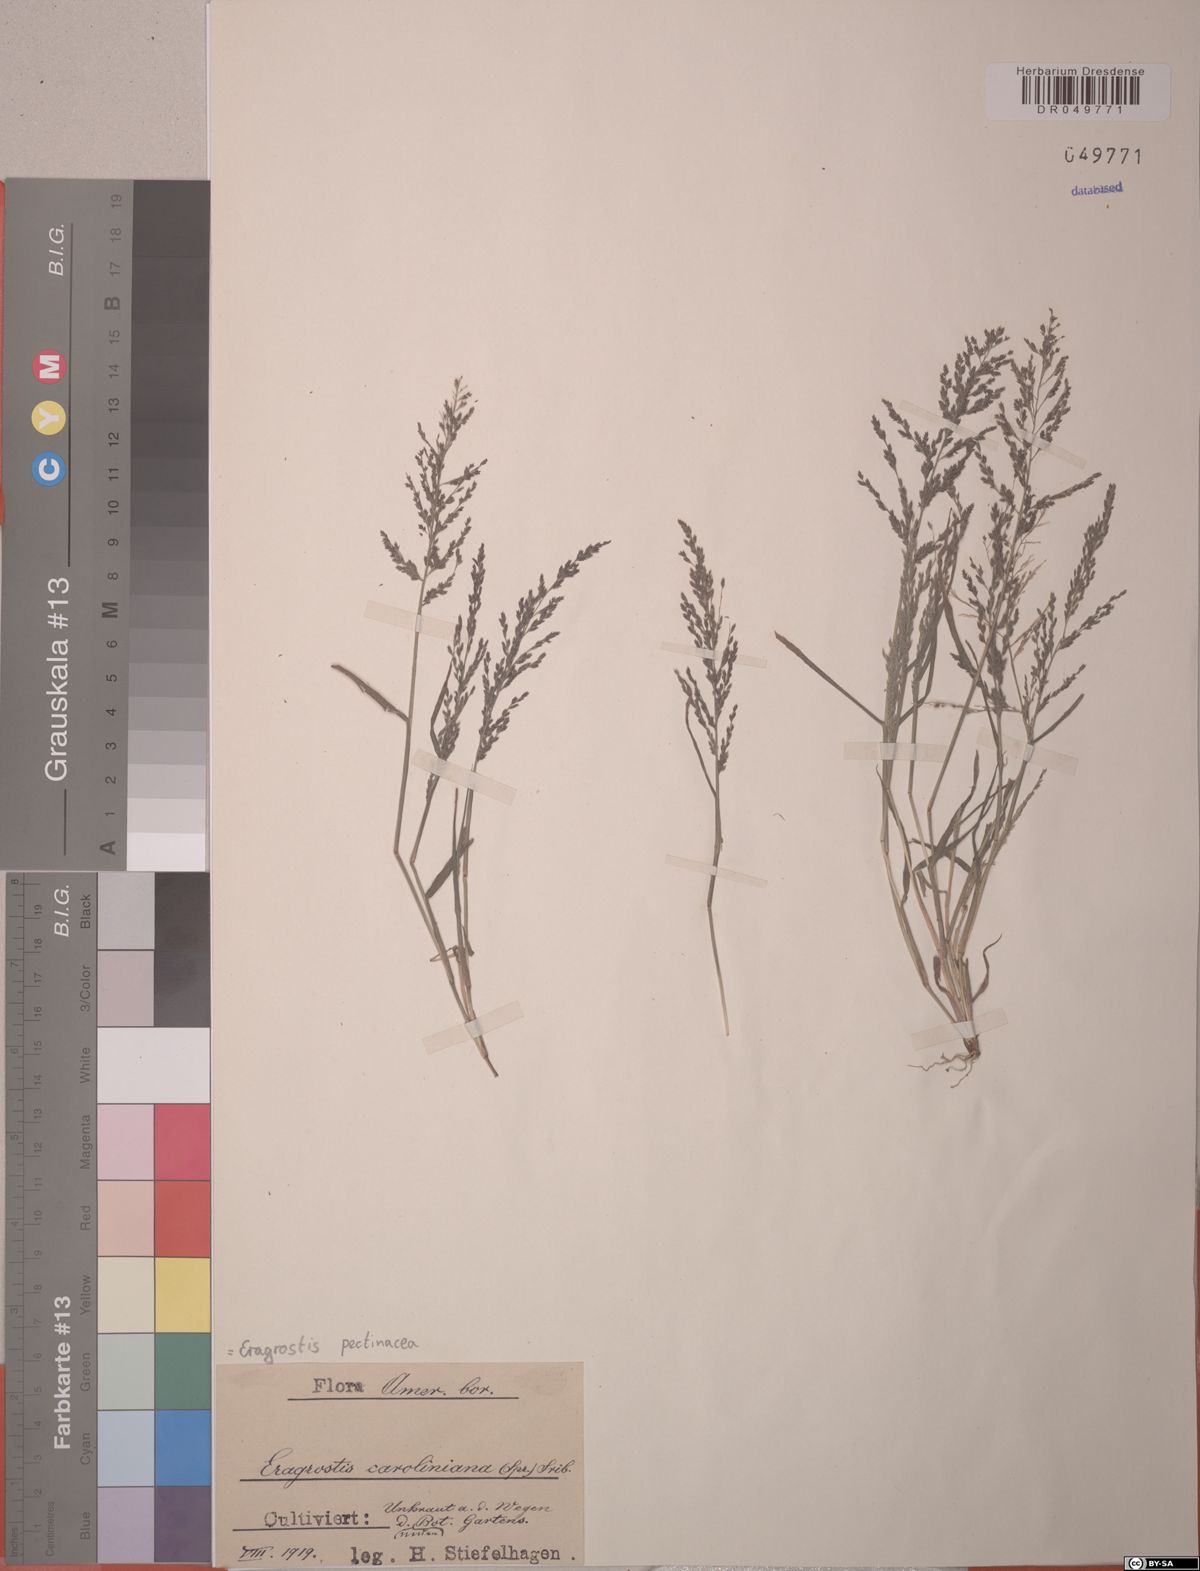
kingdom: Plantae
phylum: Tracheophyta
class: Liliopsida
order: Poales
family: Poaceae
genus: Eragrostis
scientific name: Eragrostis pectinacea
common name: Tufted lovegrass
